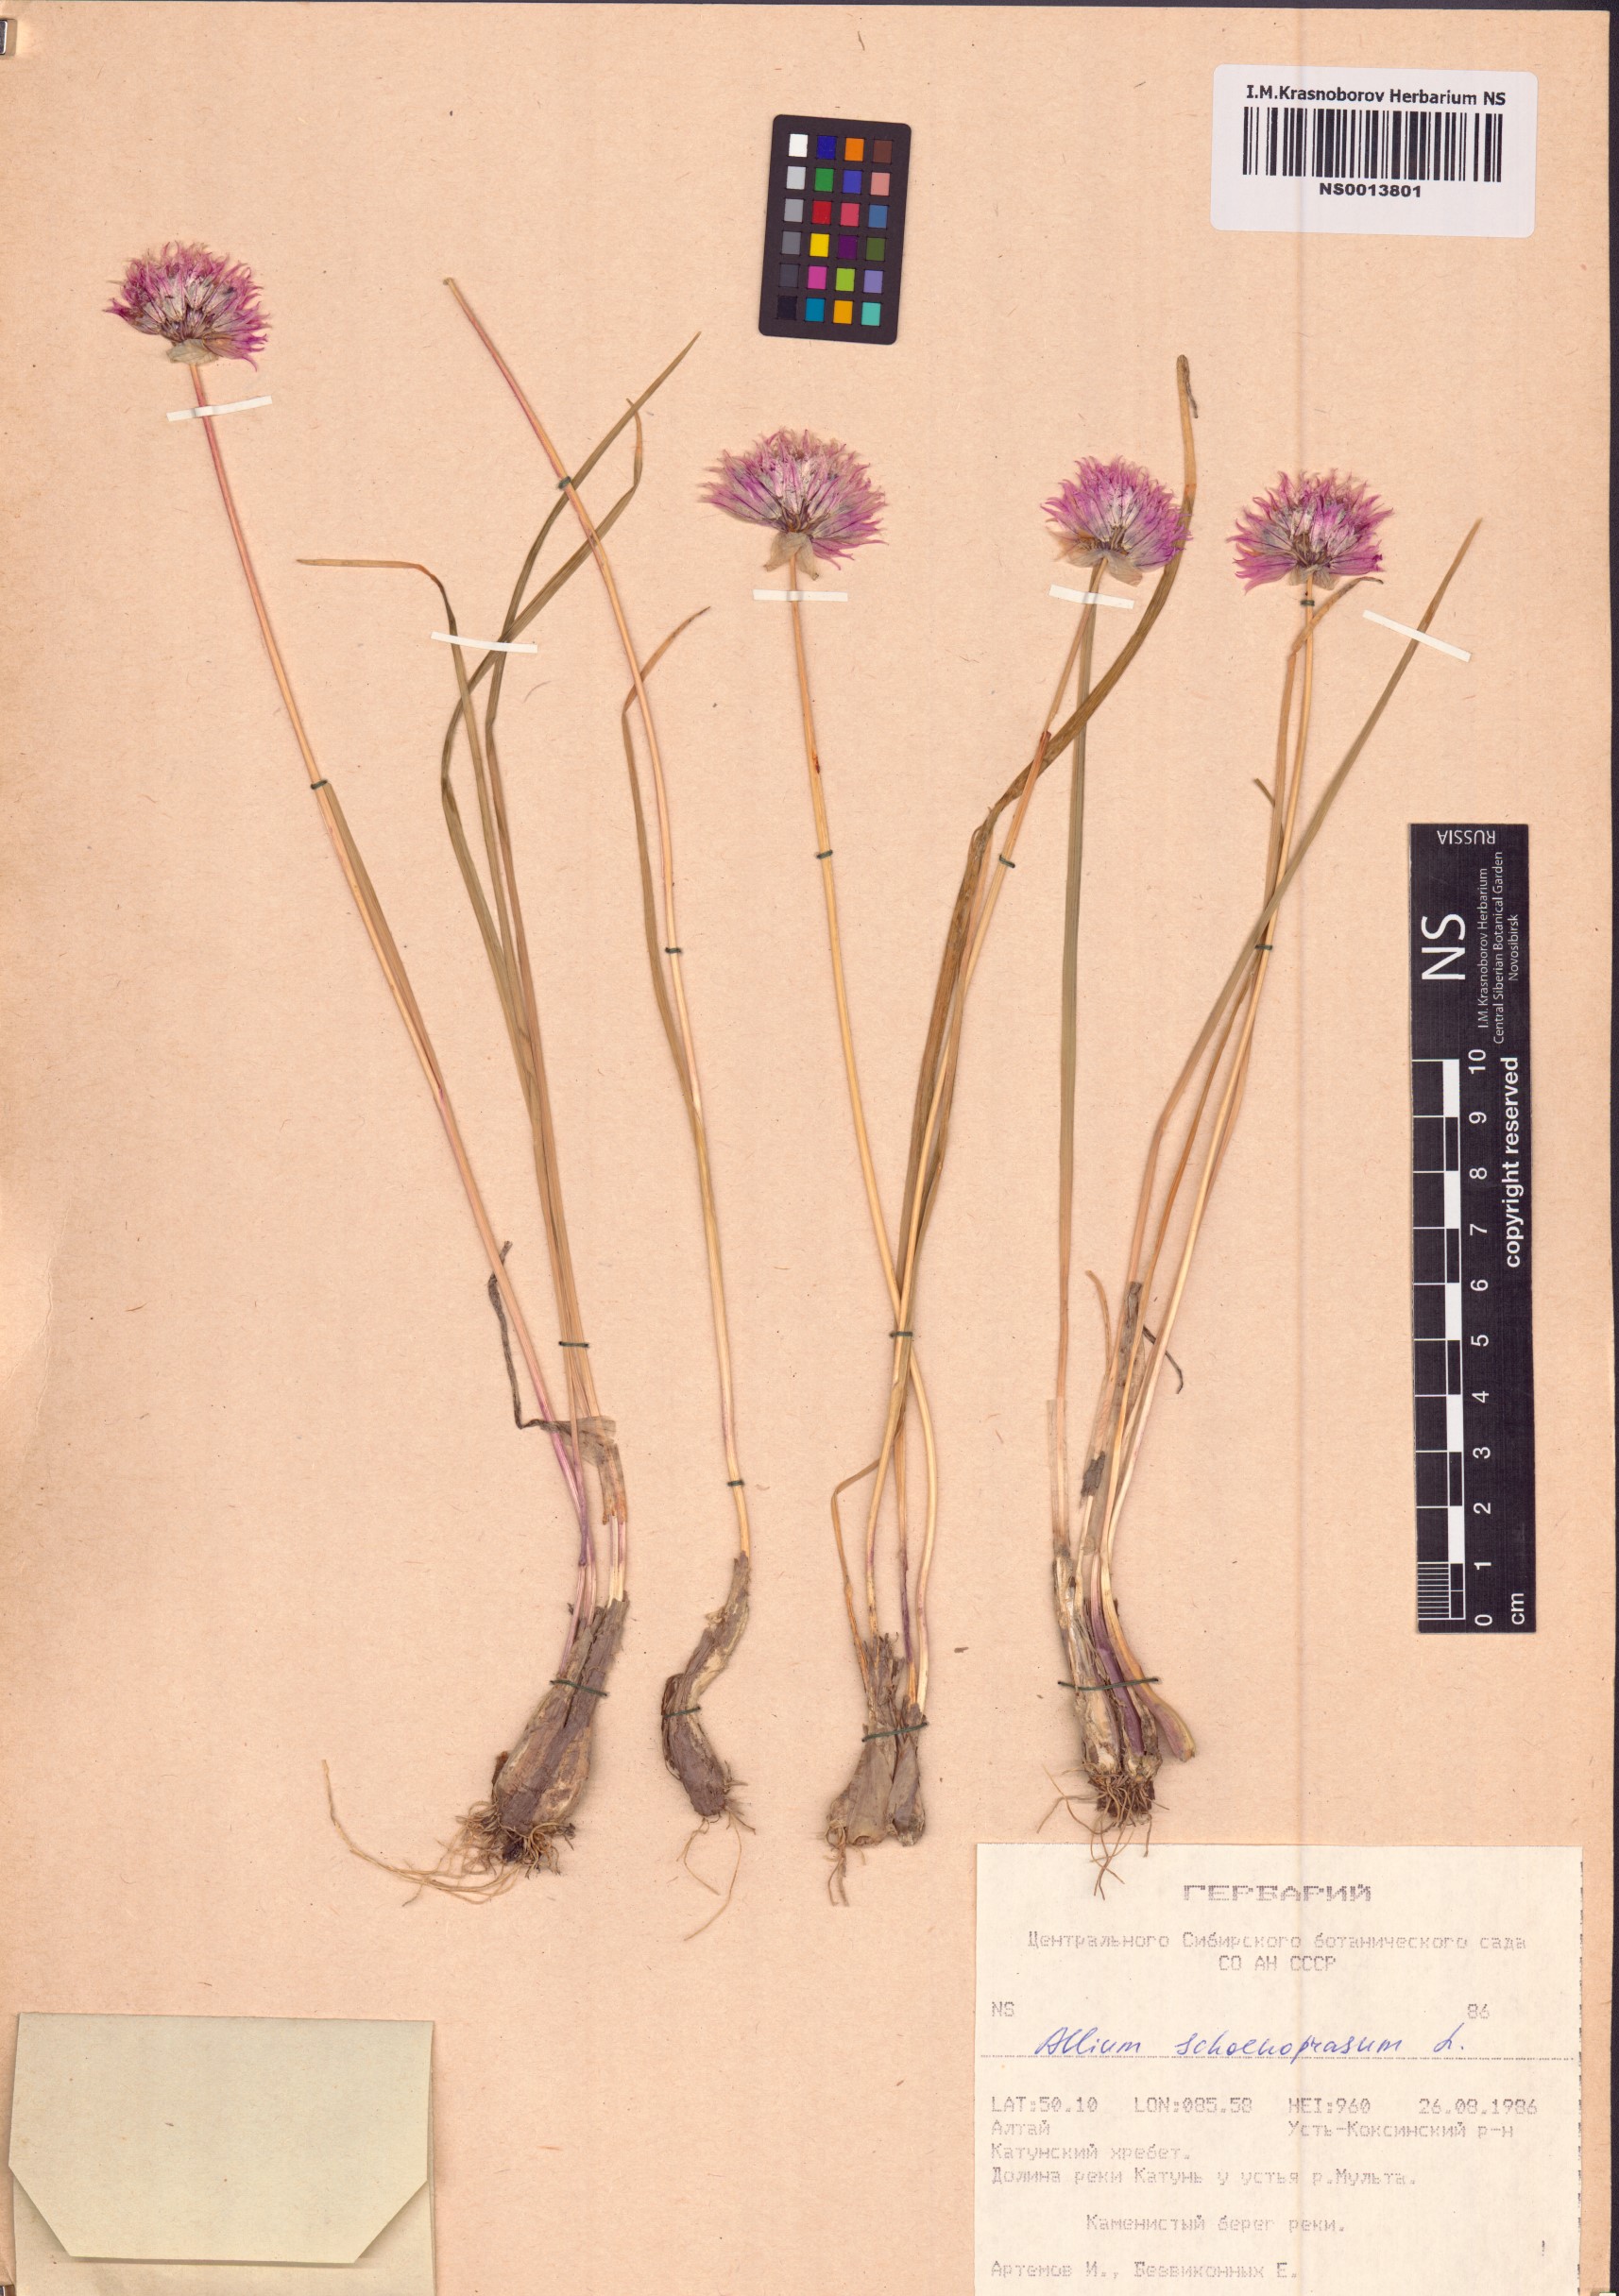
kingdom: Plantae
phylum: Tracheophyta
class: Liliopsida
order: Asparagales
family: Amaryllidaceae
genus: Allium
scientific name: Allium schoenoprasum
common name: Chives
